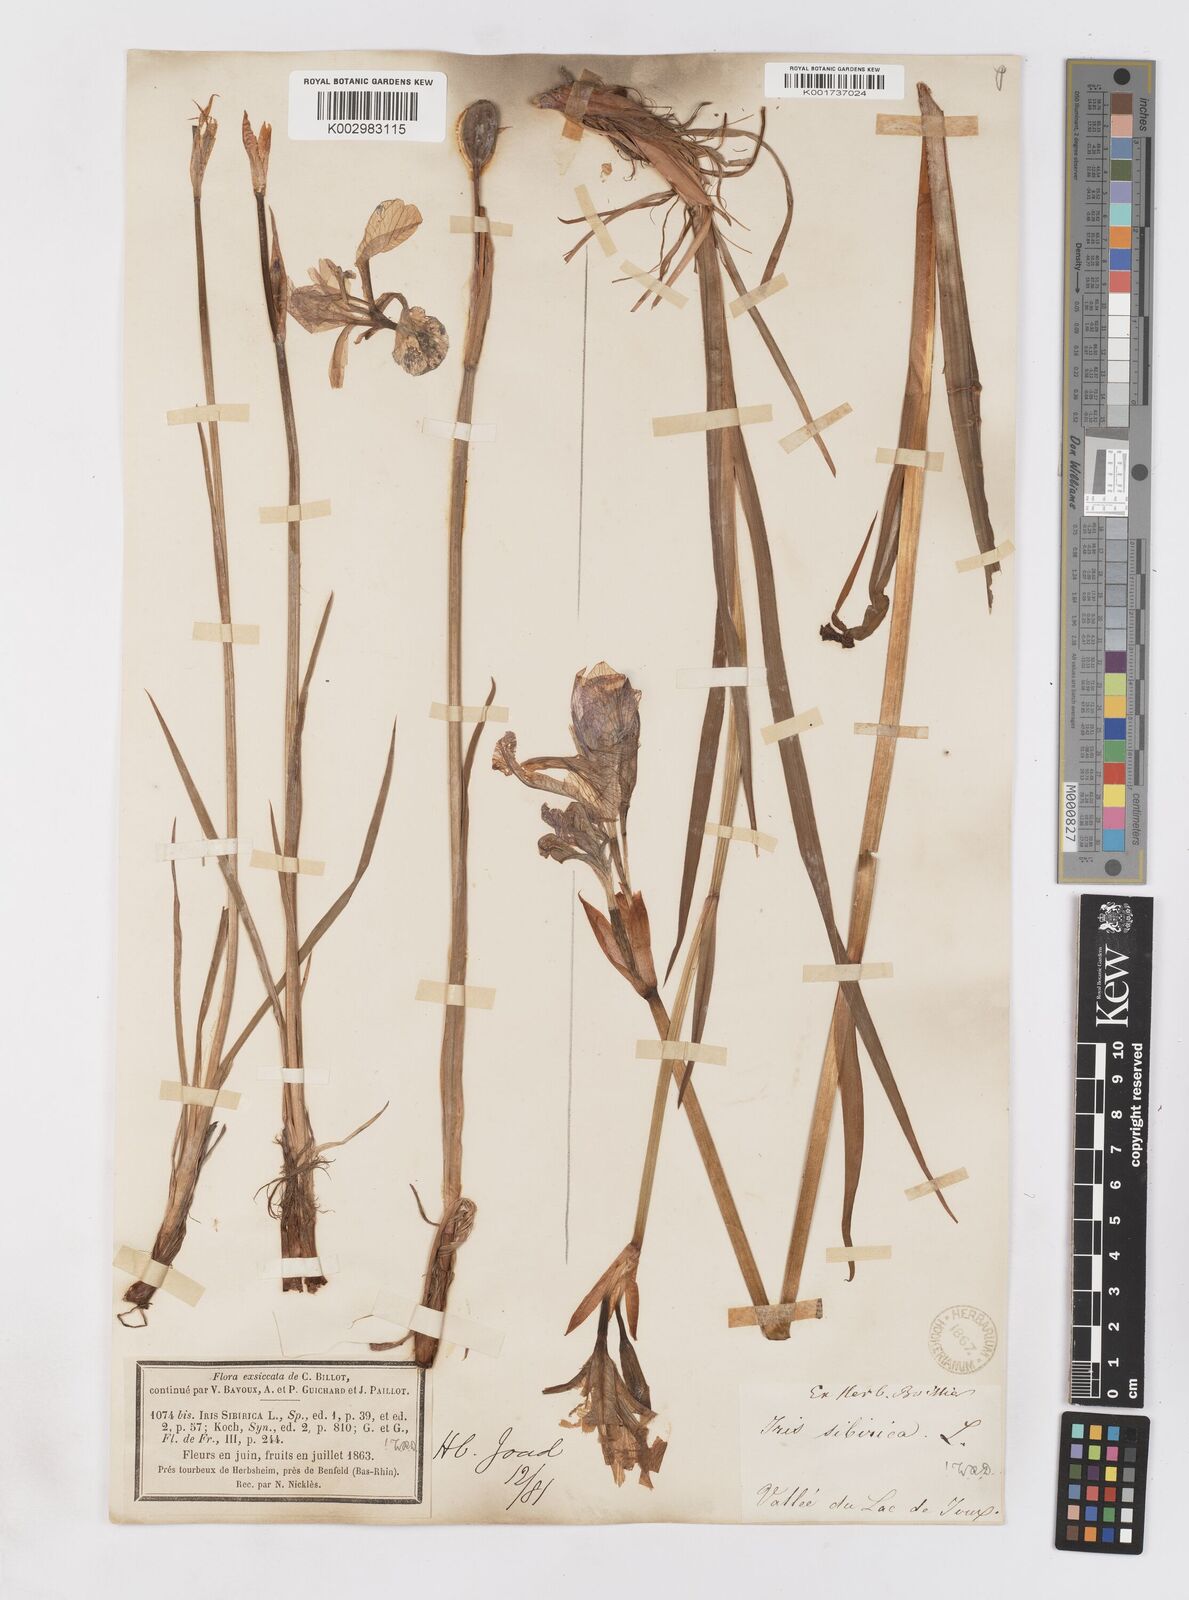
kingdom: Plantae
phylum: Tracheophyta
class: Liliopsida
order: Asparagales
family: Iridaceae
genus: Iris
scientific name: Iris sibirica
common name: Siberian iris
